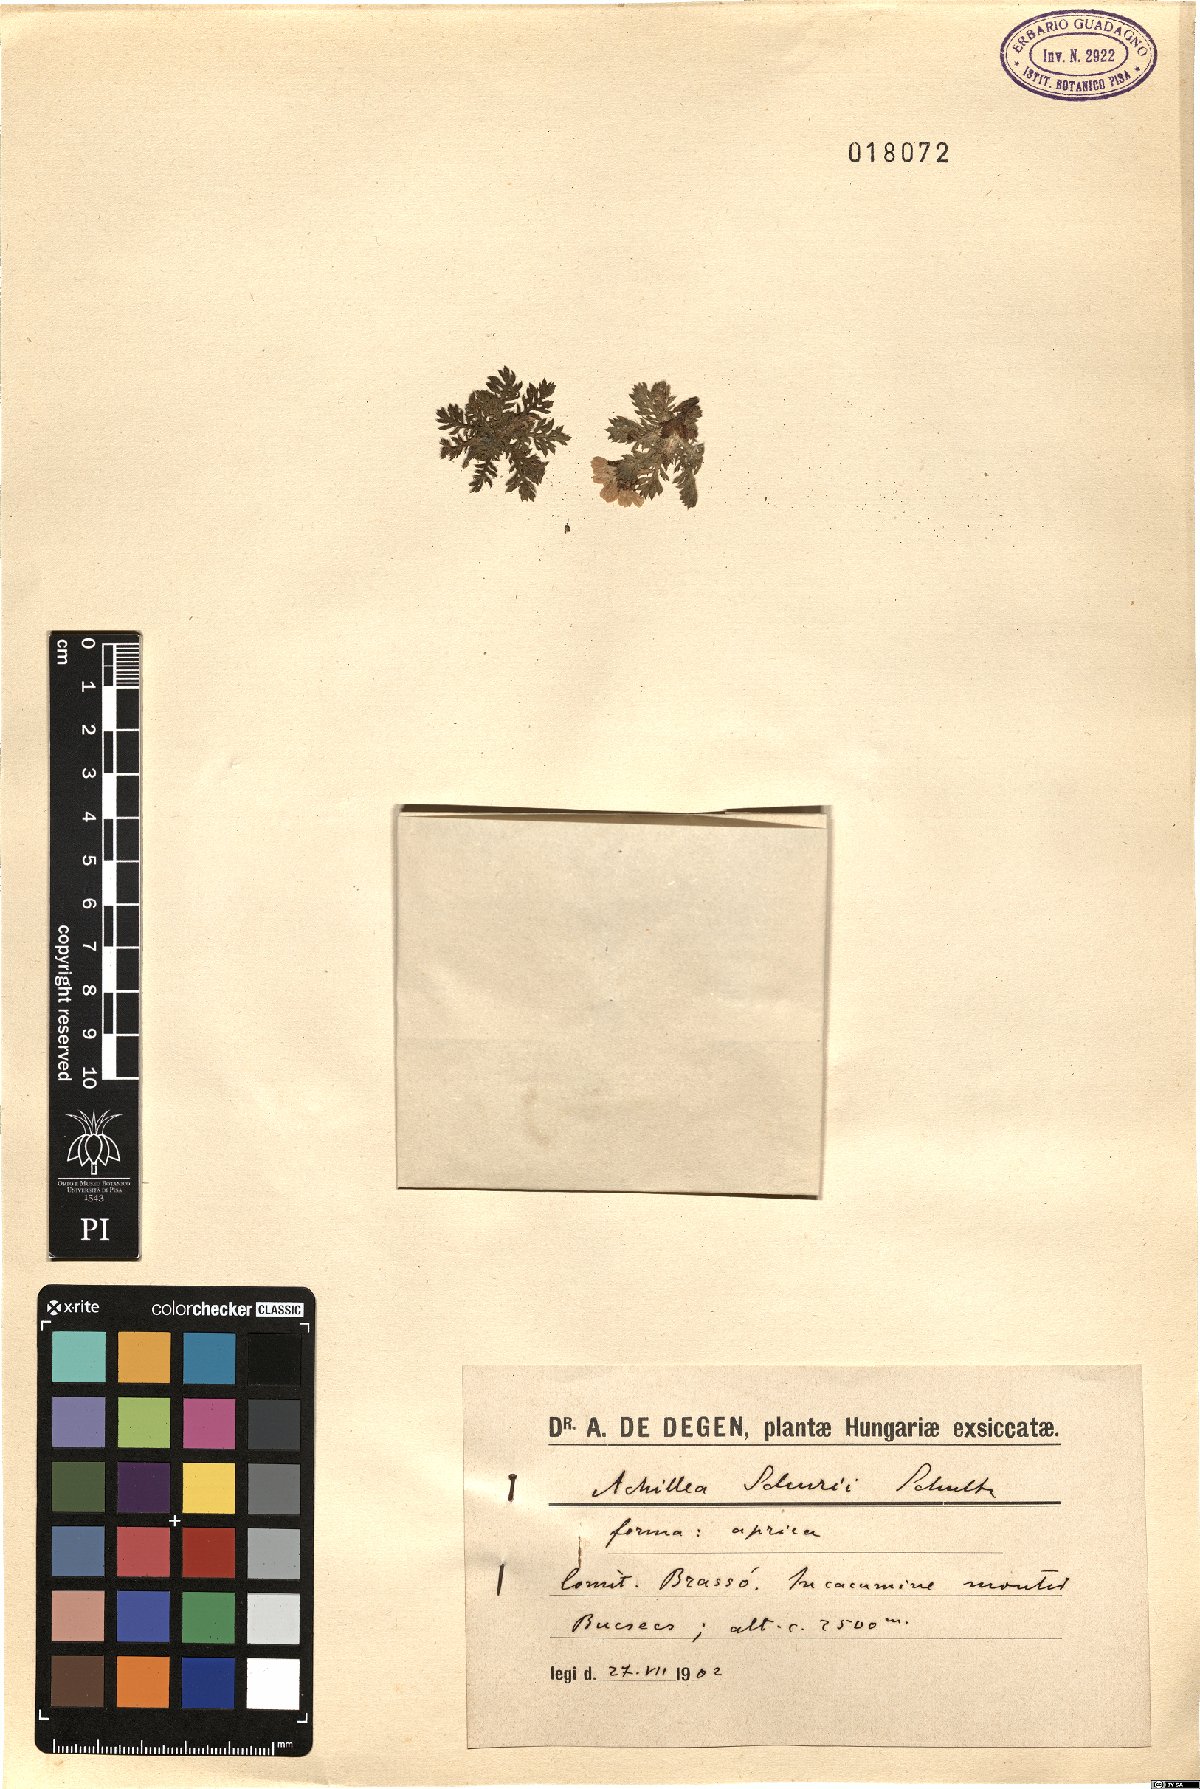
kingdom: Plantae
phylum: Tracheophyta
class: Magnoliopsida
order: Asterales
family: Asteraceae
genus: Achillea
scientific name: Achillea oxyloba
